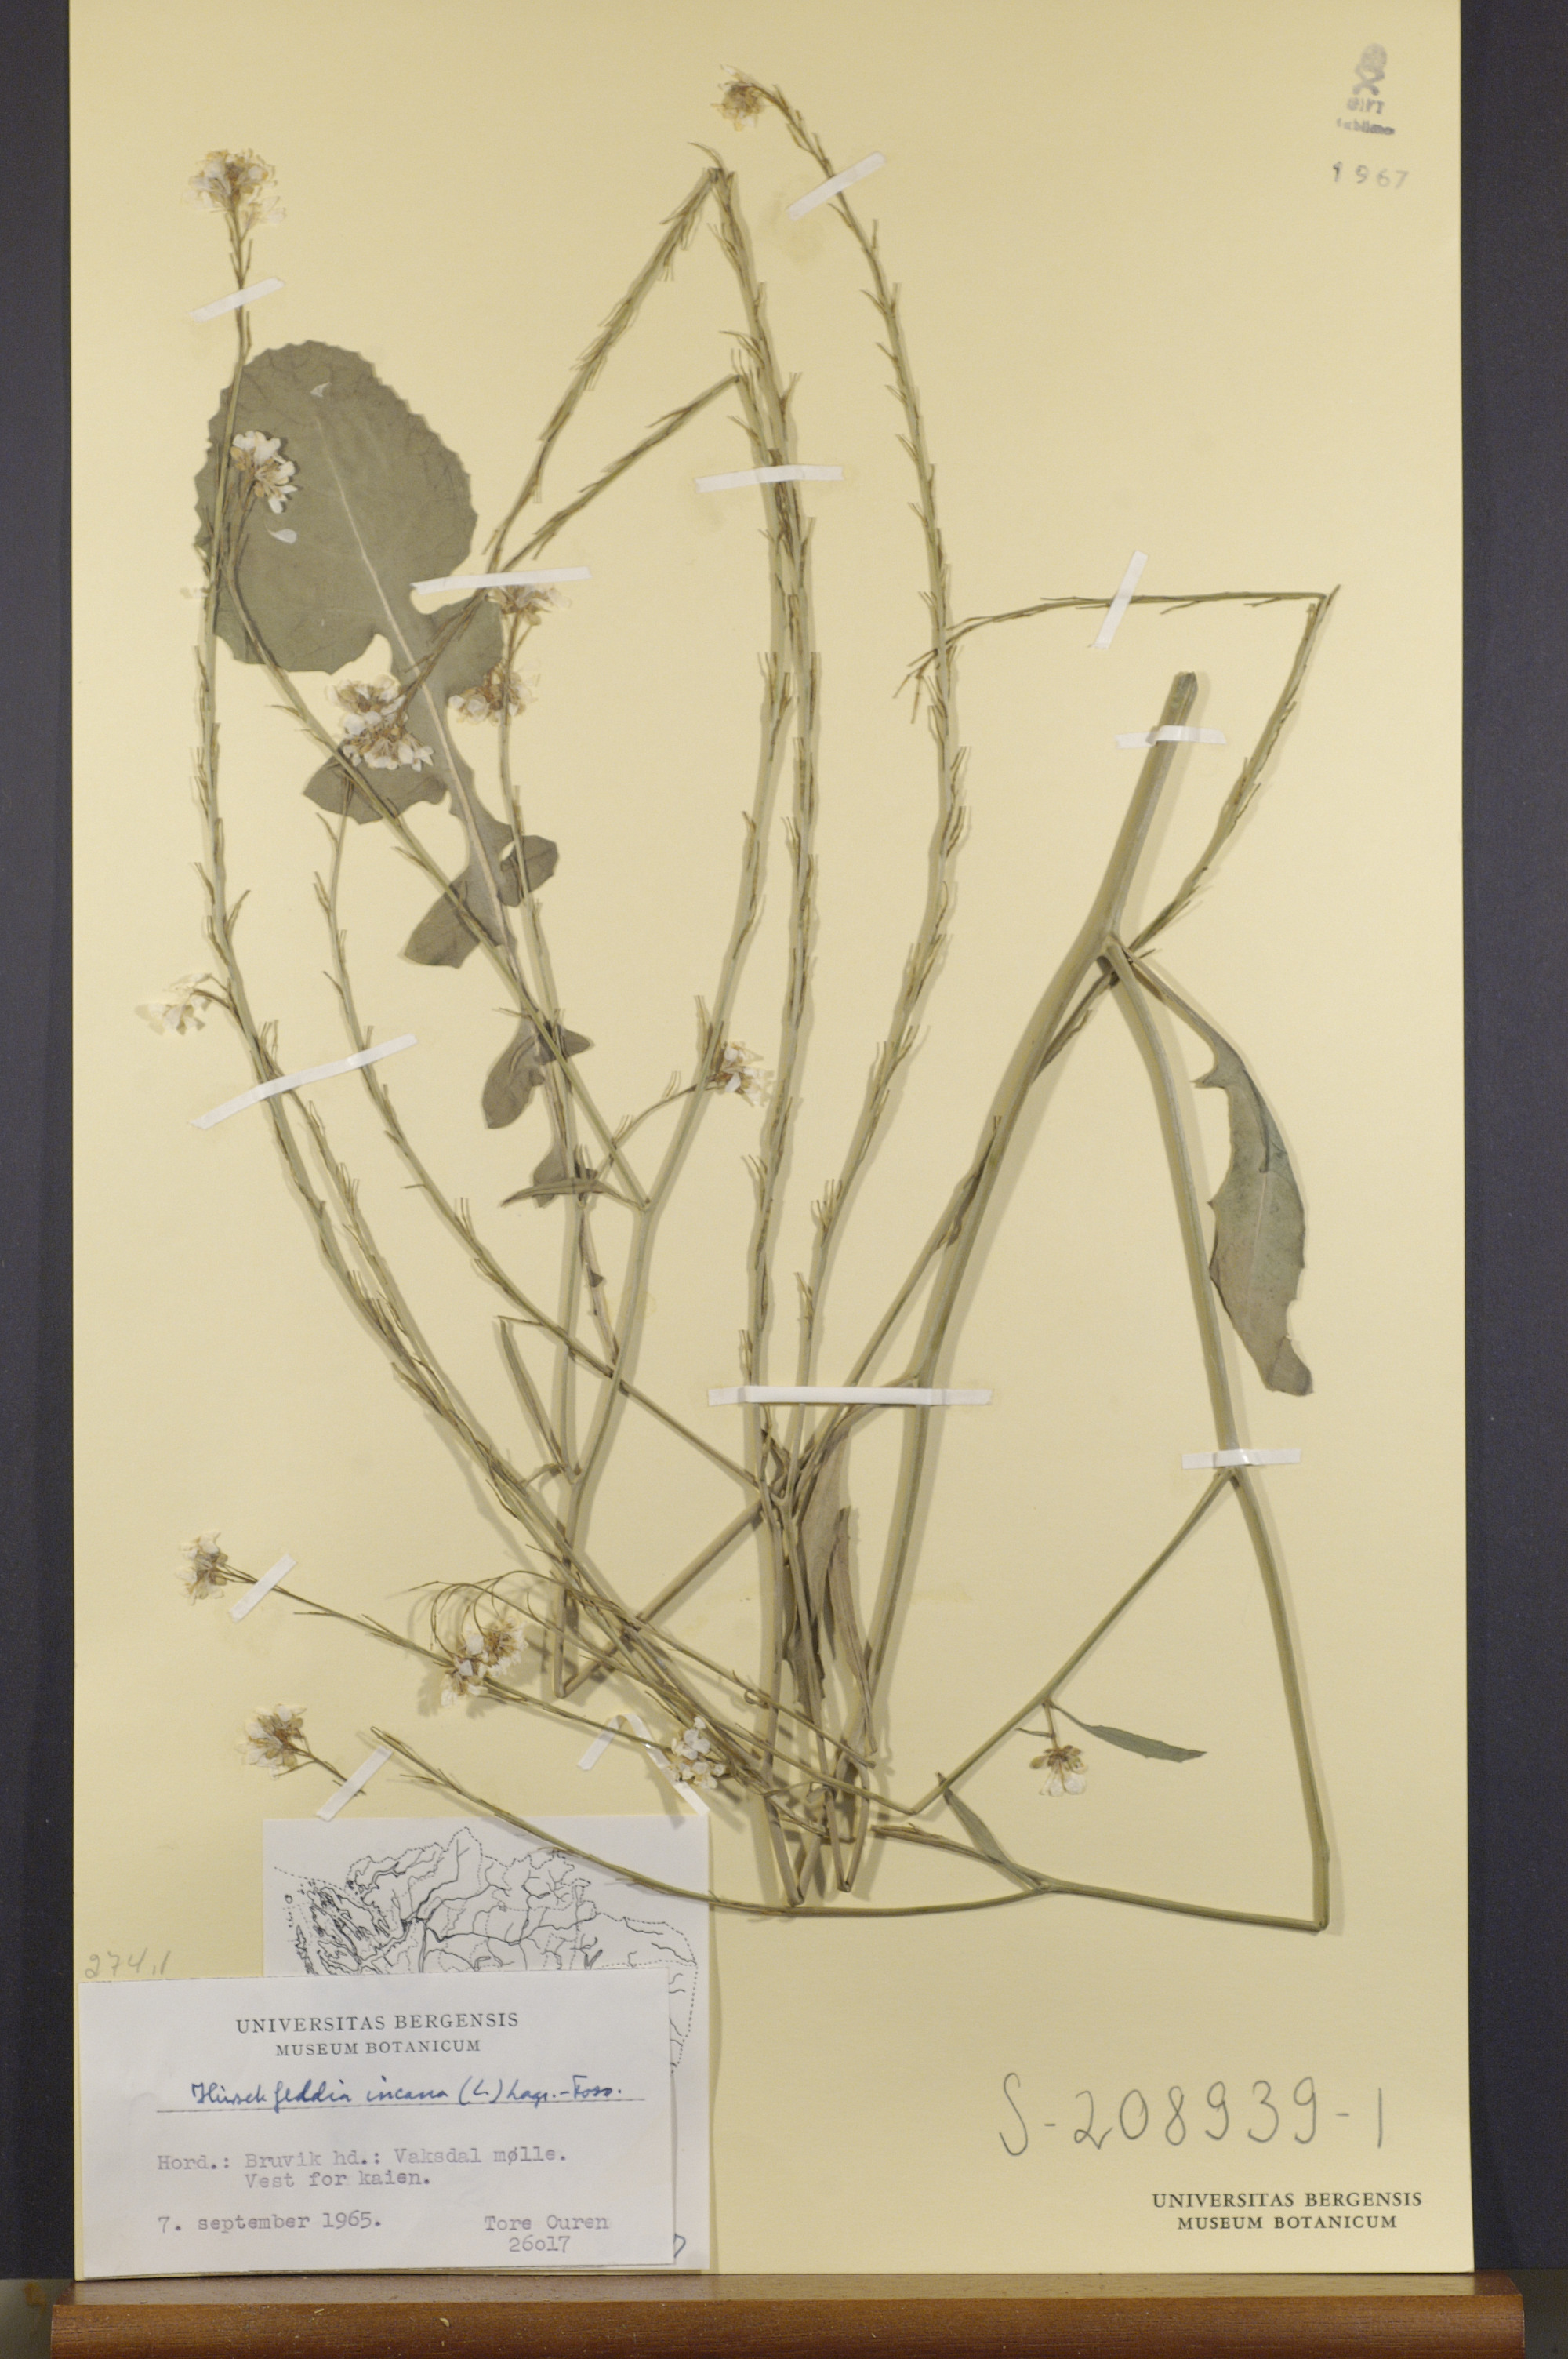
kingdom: Plantae
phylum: Tracheophyta
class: Magnoliopsida
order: Brassicales
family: Brassicaceae
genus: Hirschfeldia
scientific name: Hirschfeldia incana
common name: Hoary mustard
